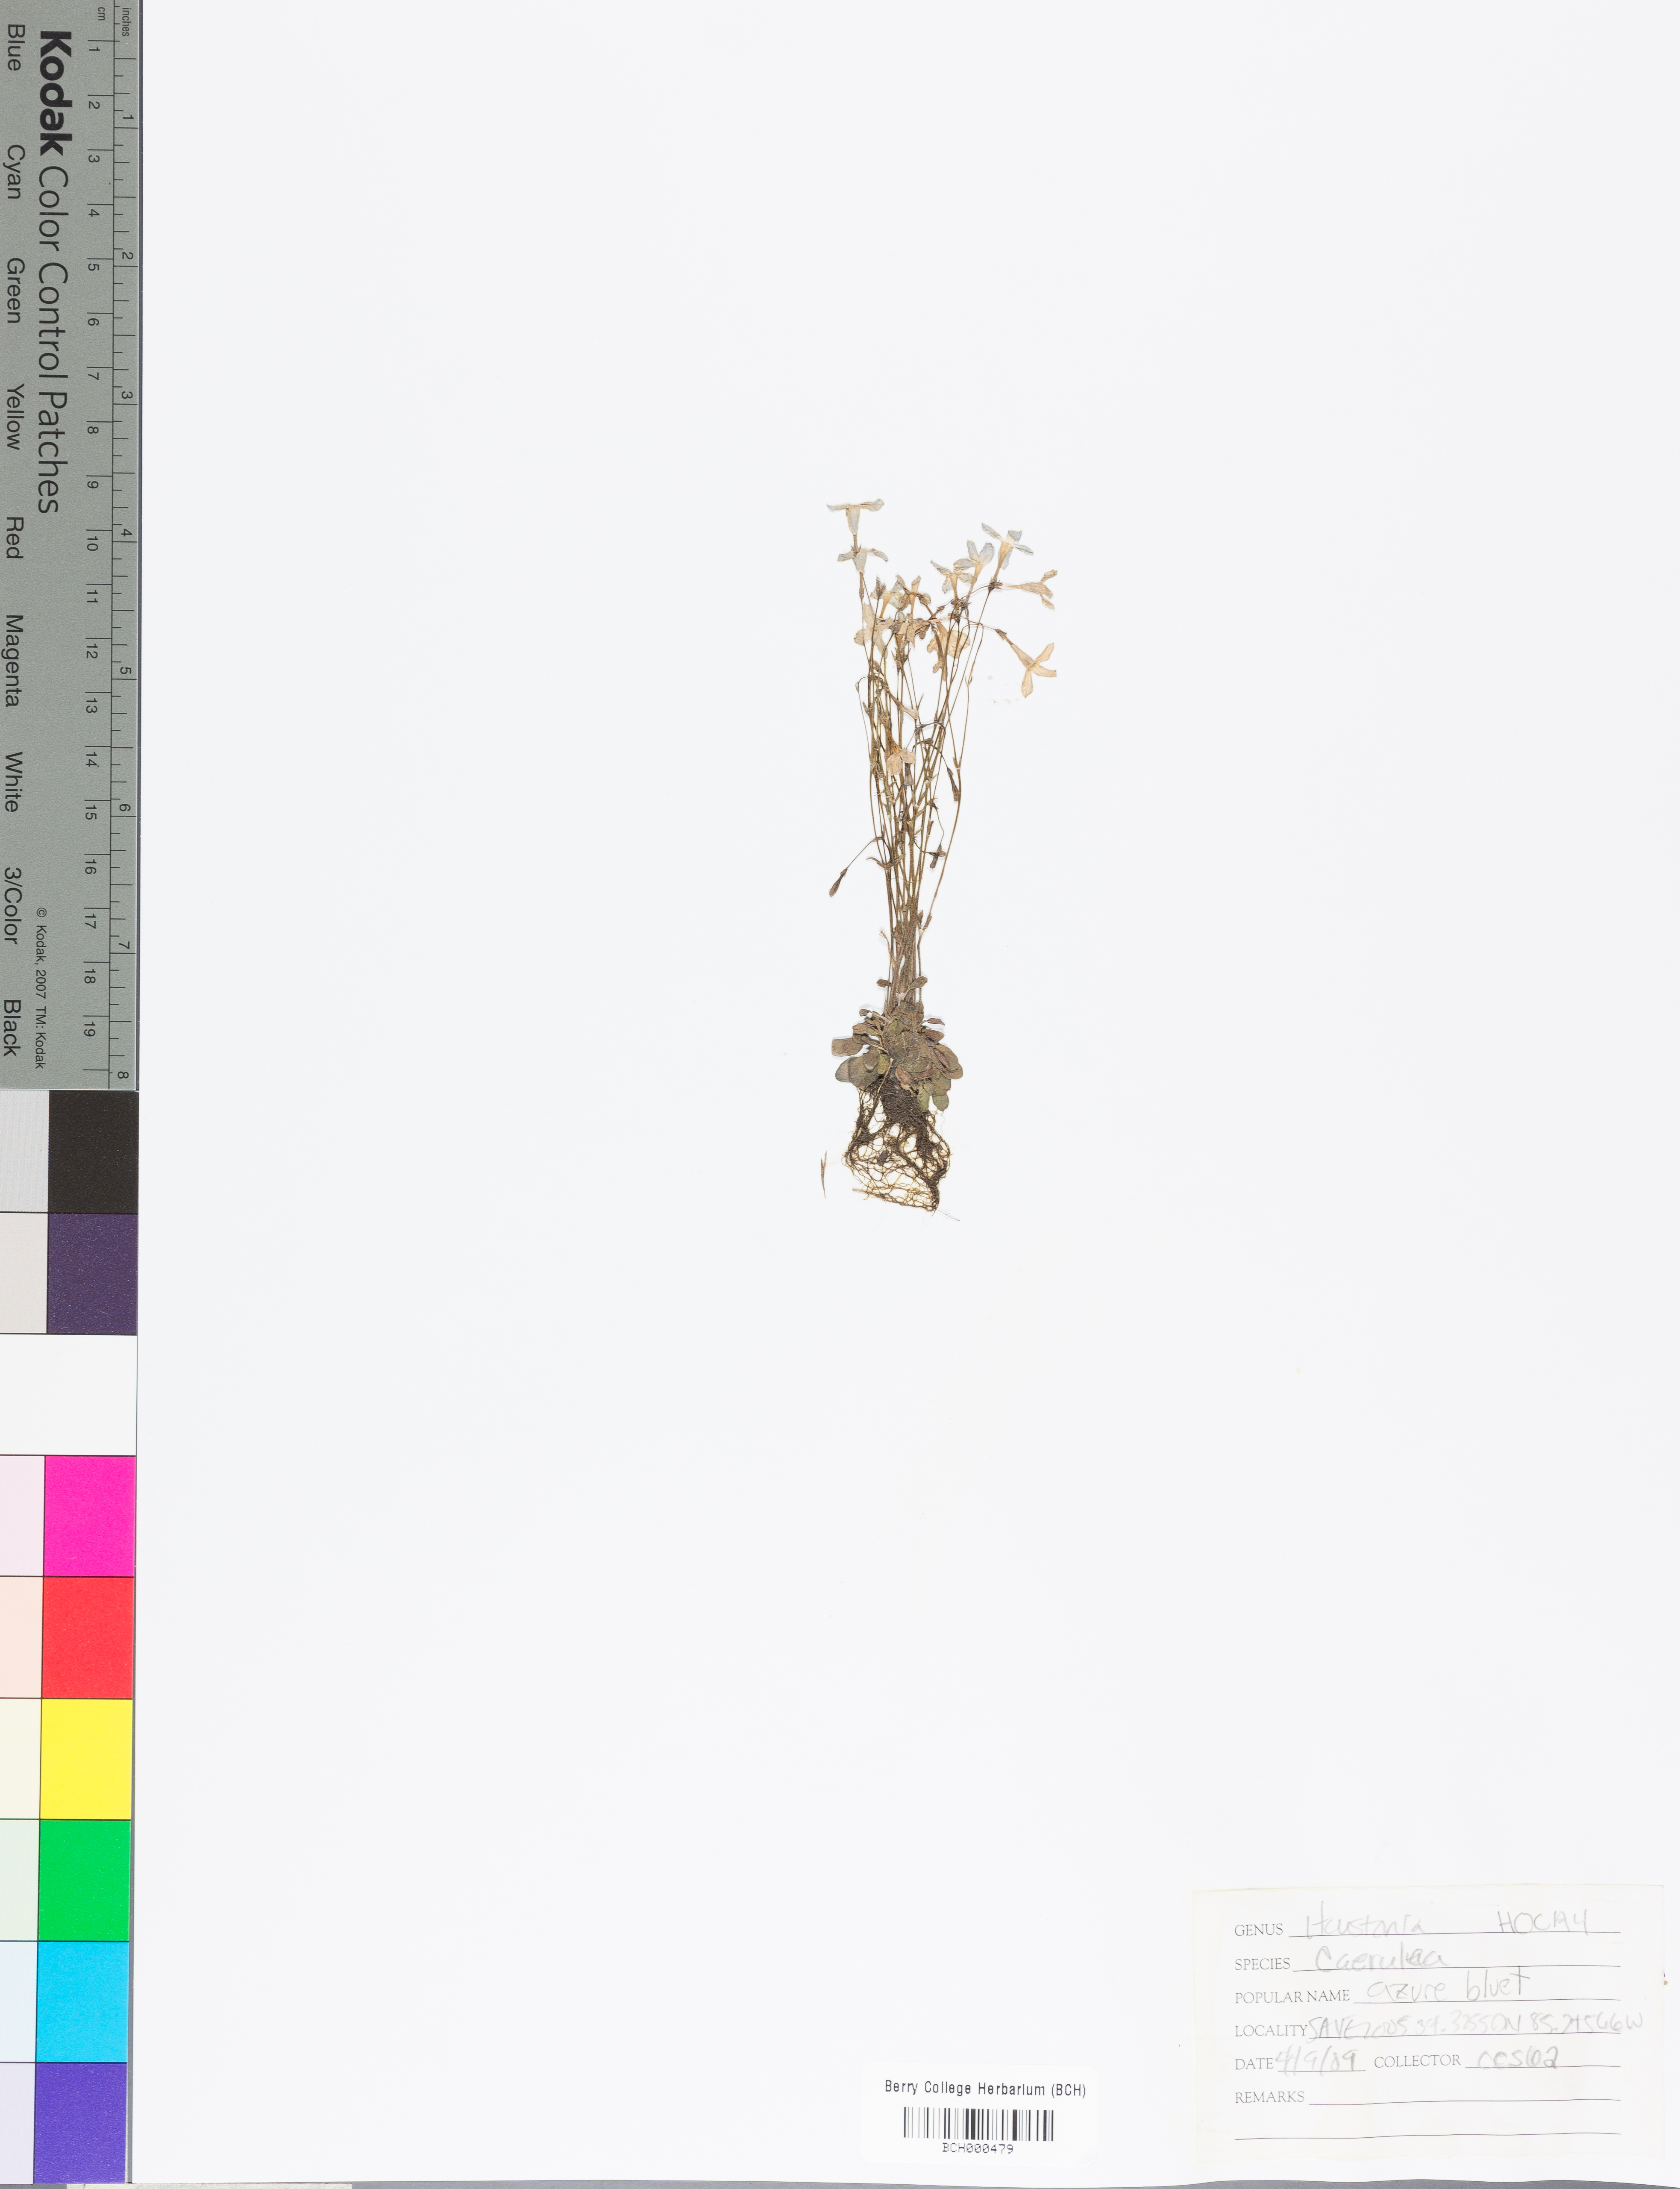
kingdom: Plantae
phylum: Tracheophyta
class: Magnoliopsida
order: Gentianales
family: Rubiaceae
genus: Houstonia
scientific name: Houstonia caerulea
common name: Bluets
